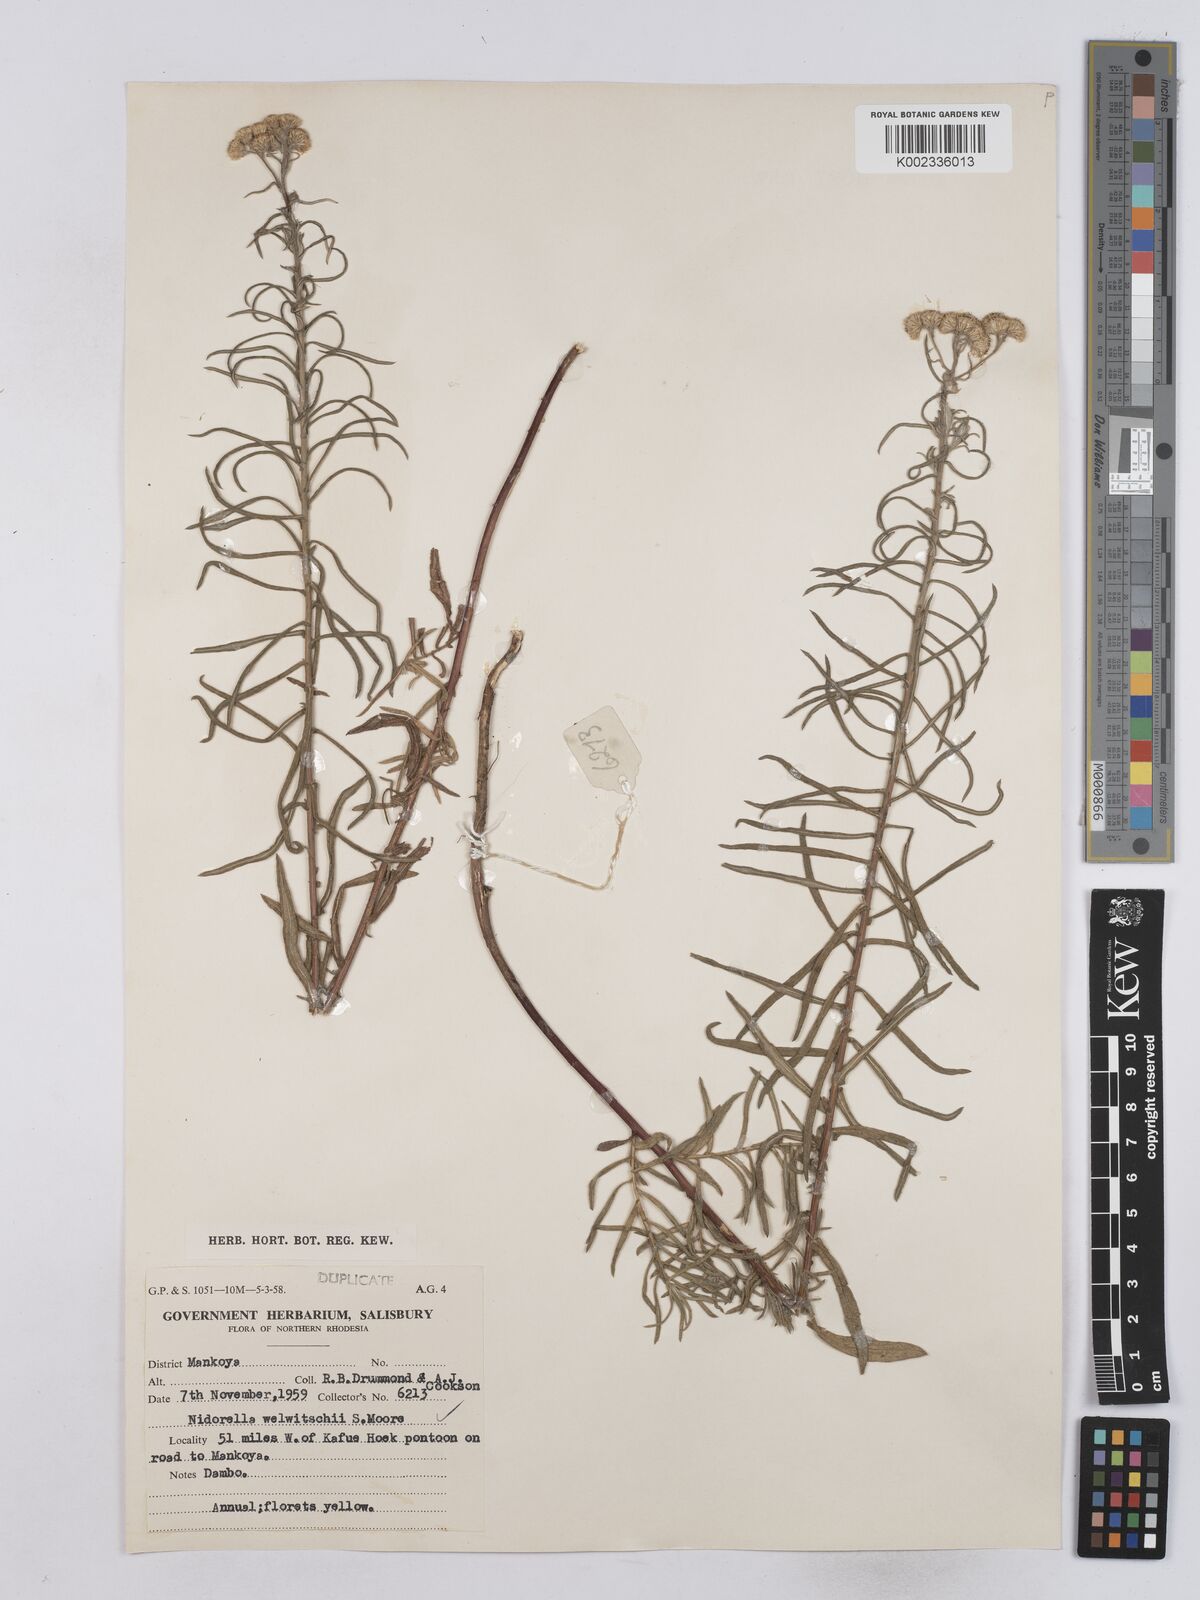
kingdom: Plantae
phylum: Tracheophyta
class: Magnoliopsida
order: Asterales
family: Asteraceae
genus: Nidorella
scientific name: Nidorella welwitschii
